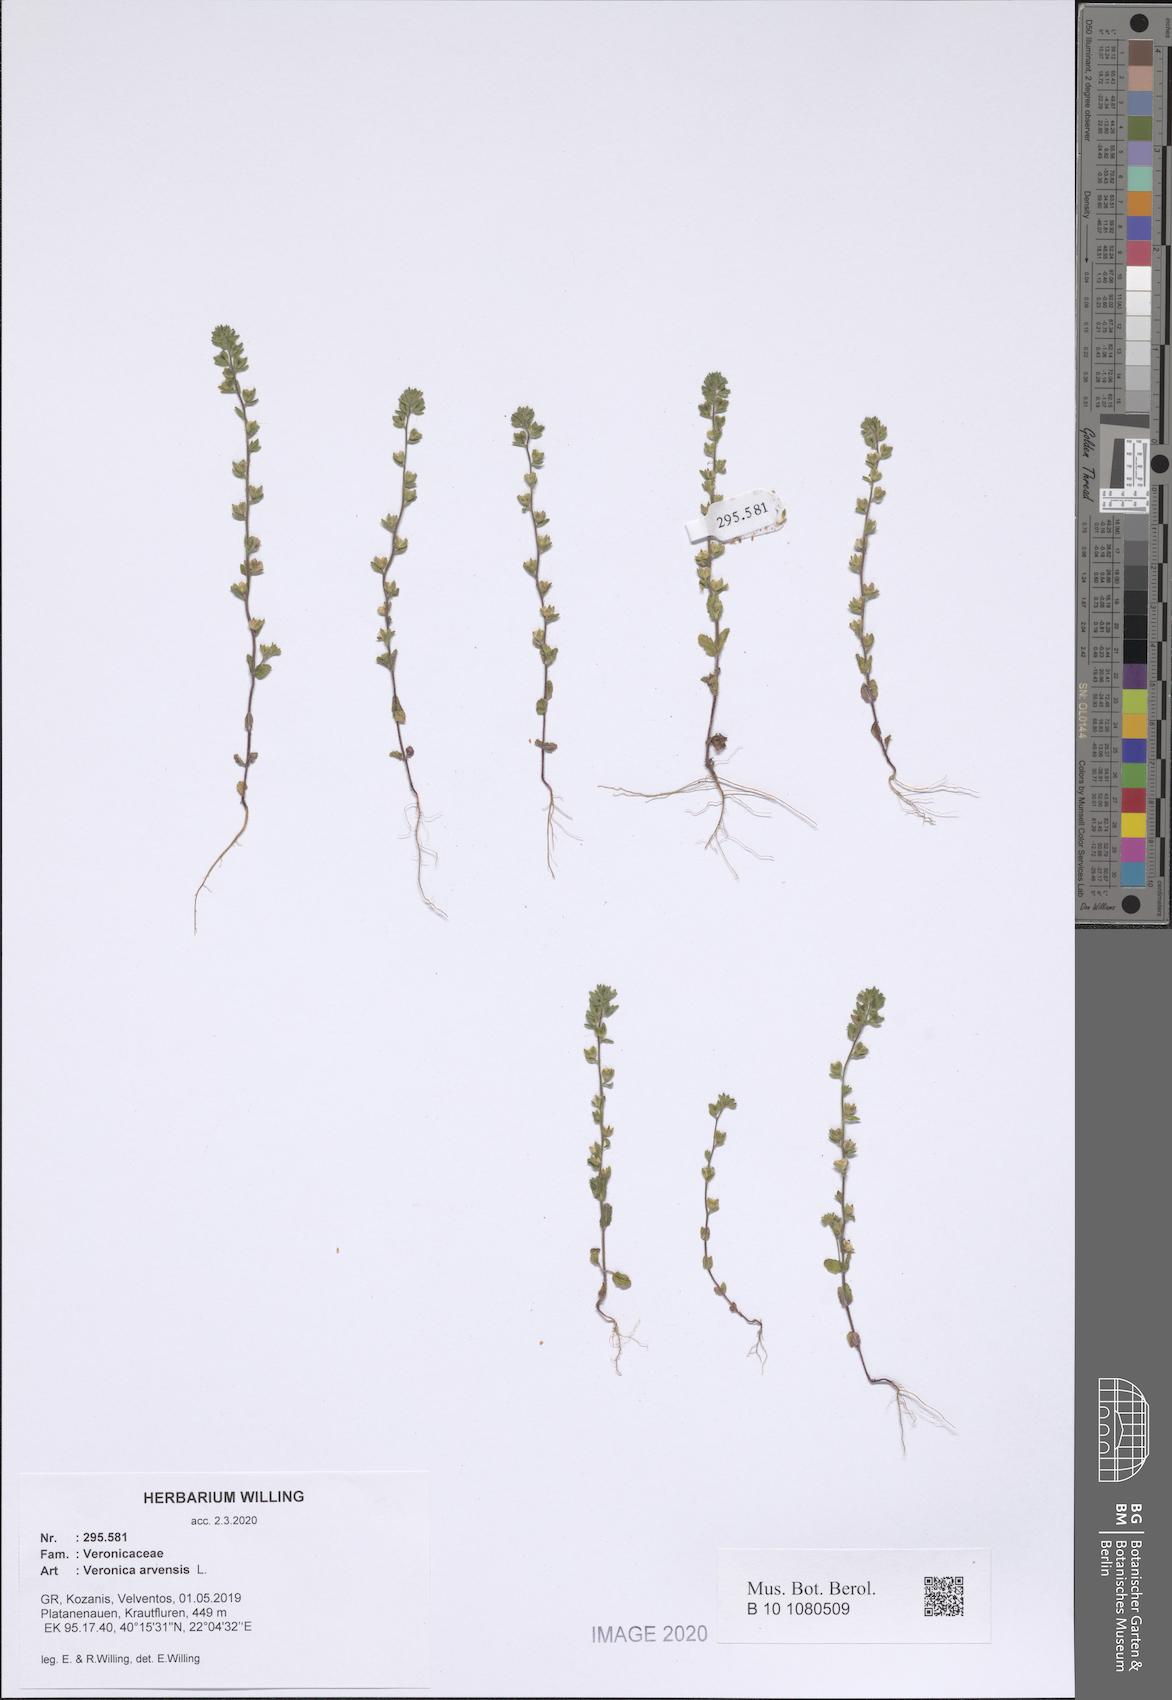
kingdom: Plantae
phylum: Tracheophyta
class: Magnoliopsida
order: Lamiales
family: Plantaginaceae
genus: Veronica
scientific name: Veronica arvensis
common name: Corn speedwell
